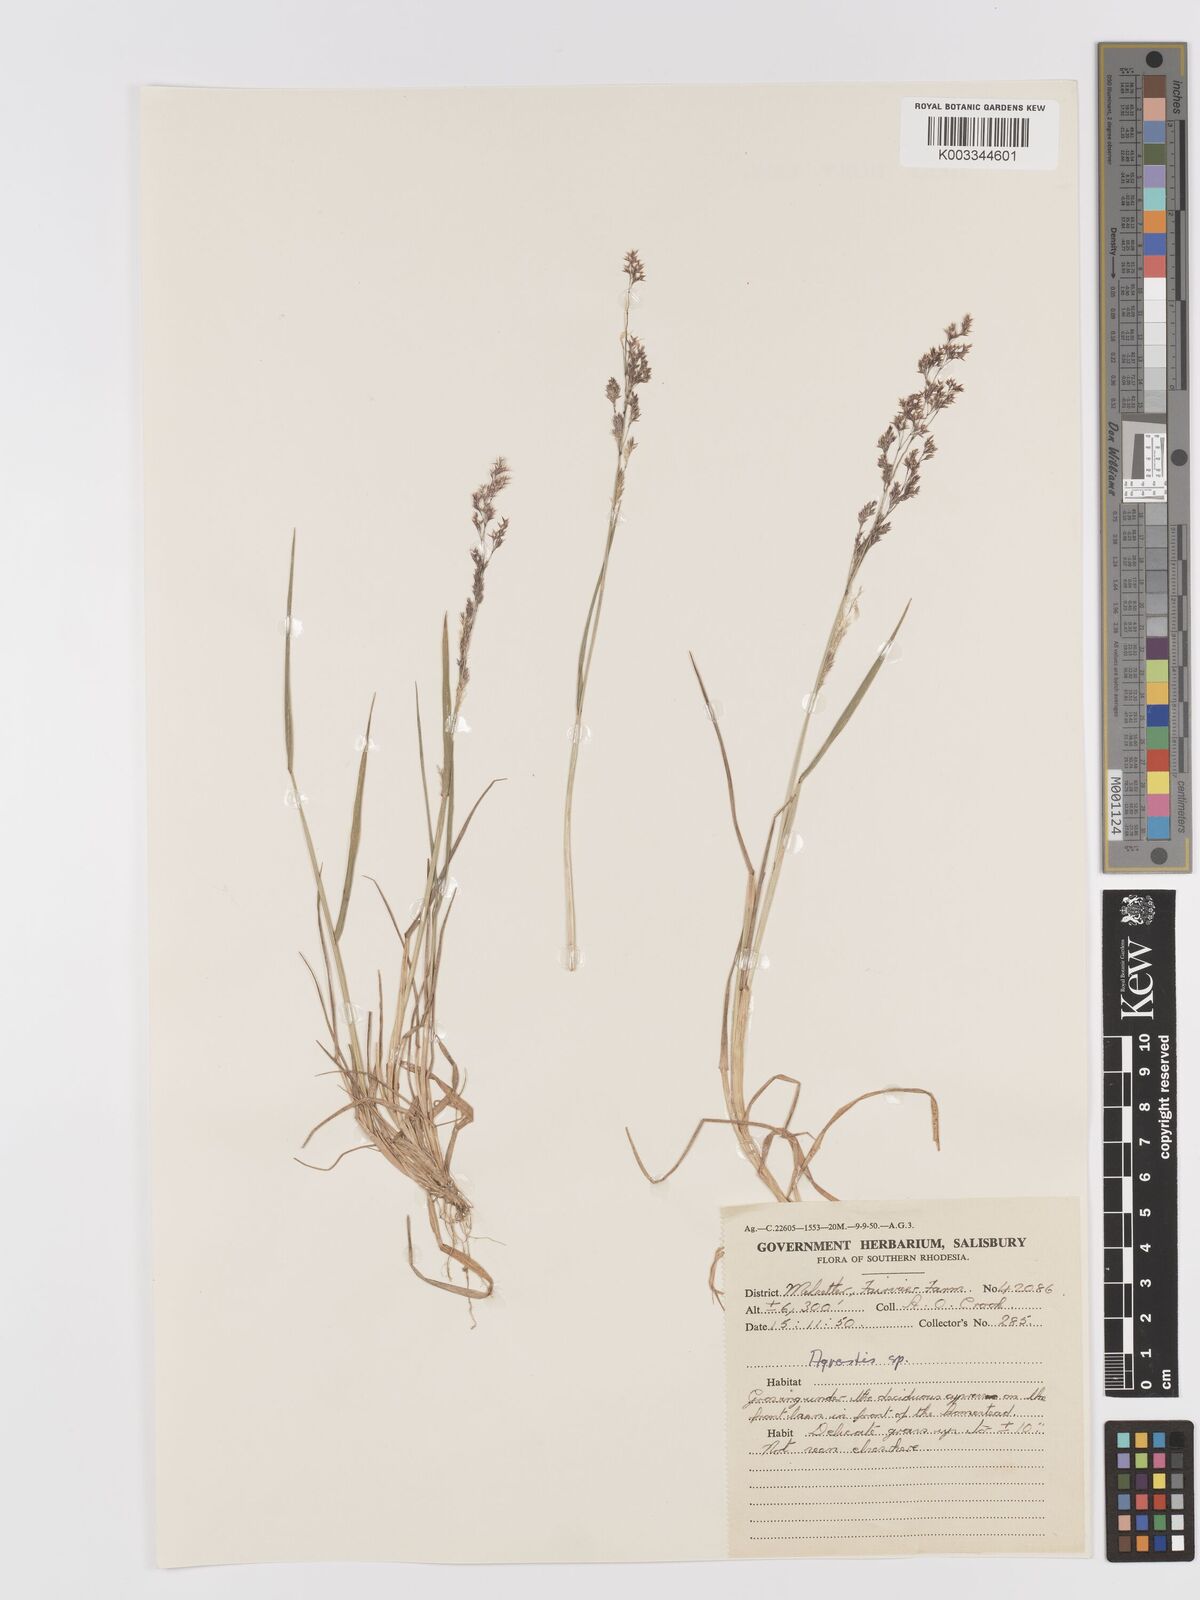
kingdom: Plantae
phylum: Tracheophyta
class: Liliopsida
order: Poales
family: Poaceae
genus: Agrostis
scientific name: Agrostis
